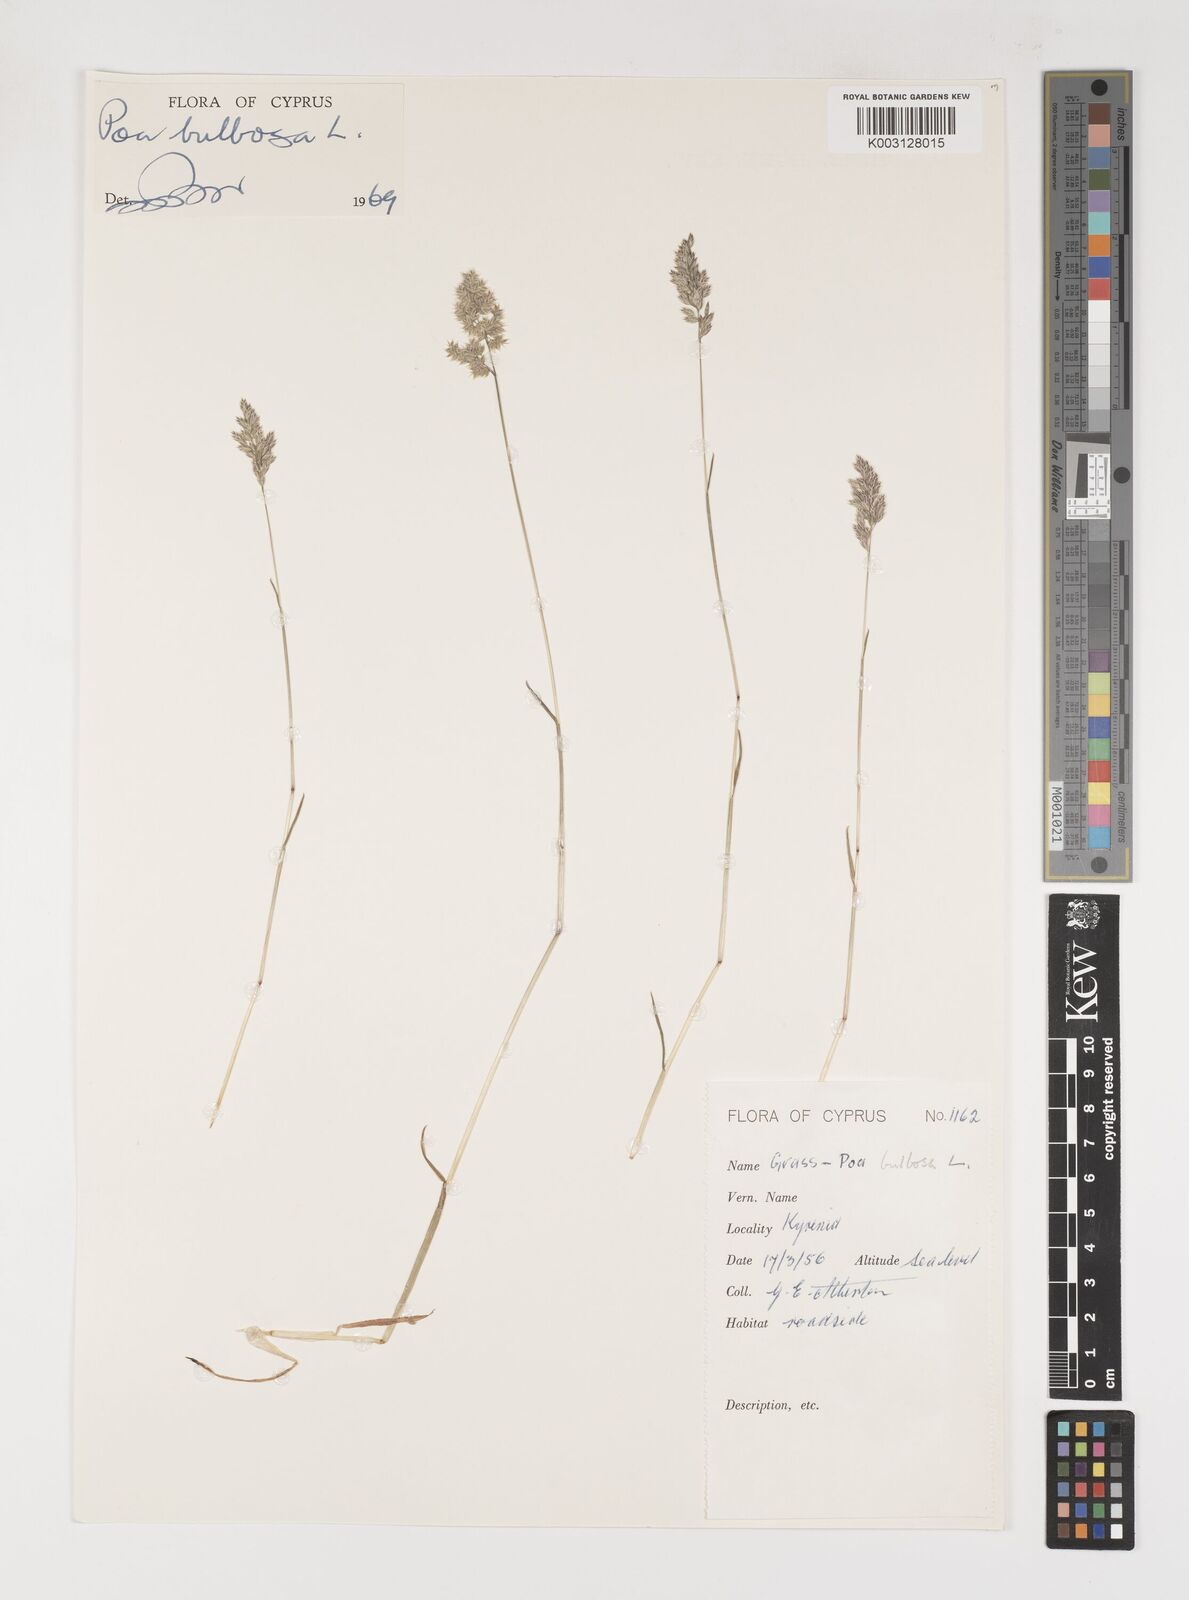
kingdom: Plantae
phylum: Tracheophyta
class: Liliopsida
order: Poales
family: Poaceae
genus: Poa
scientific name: Poa bulbosa
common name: Bulbous bluegrass
